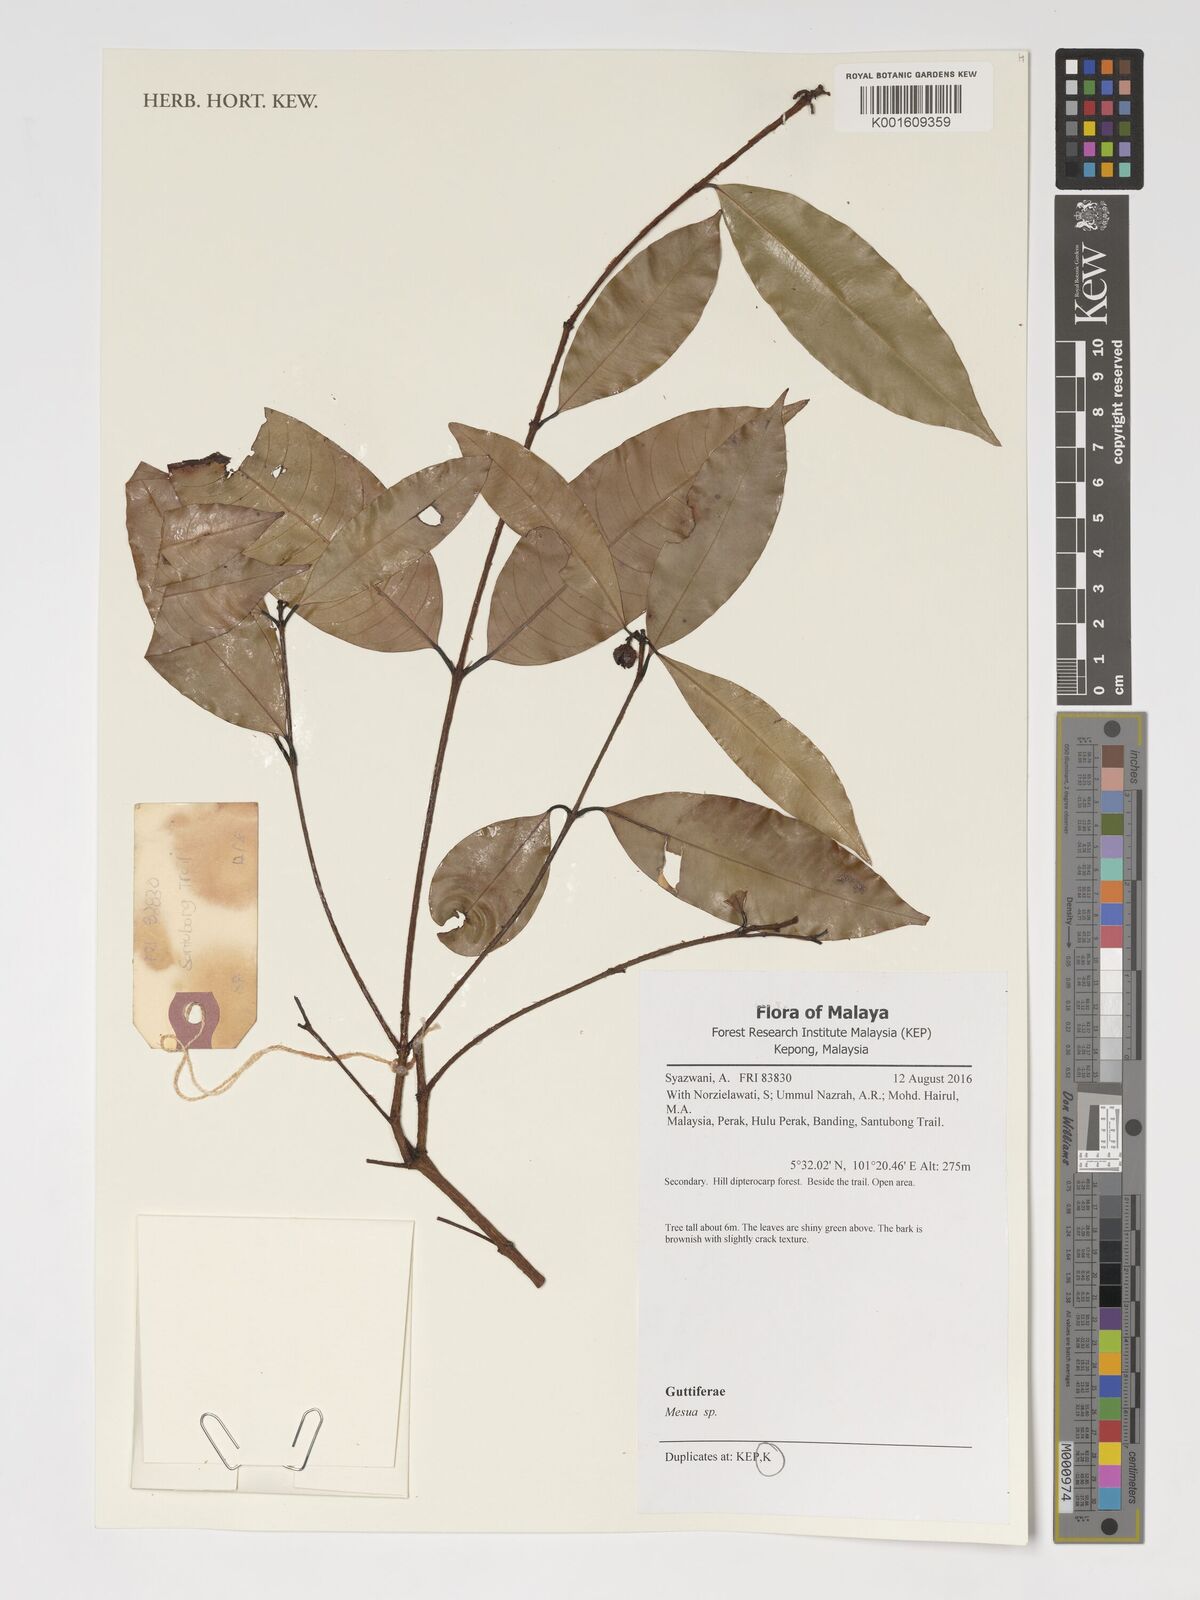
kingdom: Plantae
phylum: Tracheophyta
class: Magnoliopsida
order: Malpighiales
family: Calophyllaceae
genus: Mesua
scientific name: Mesua
